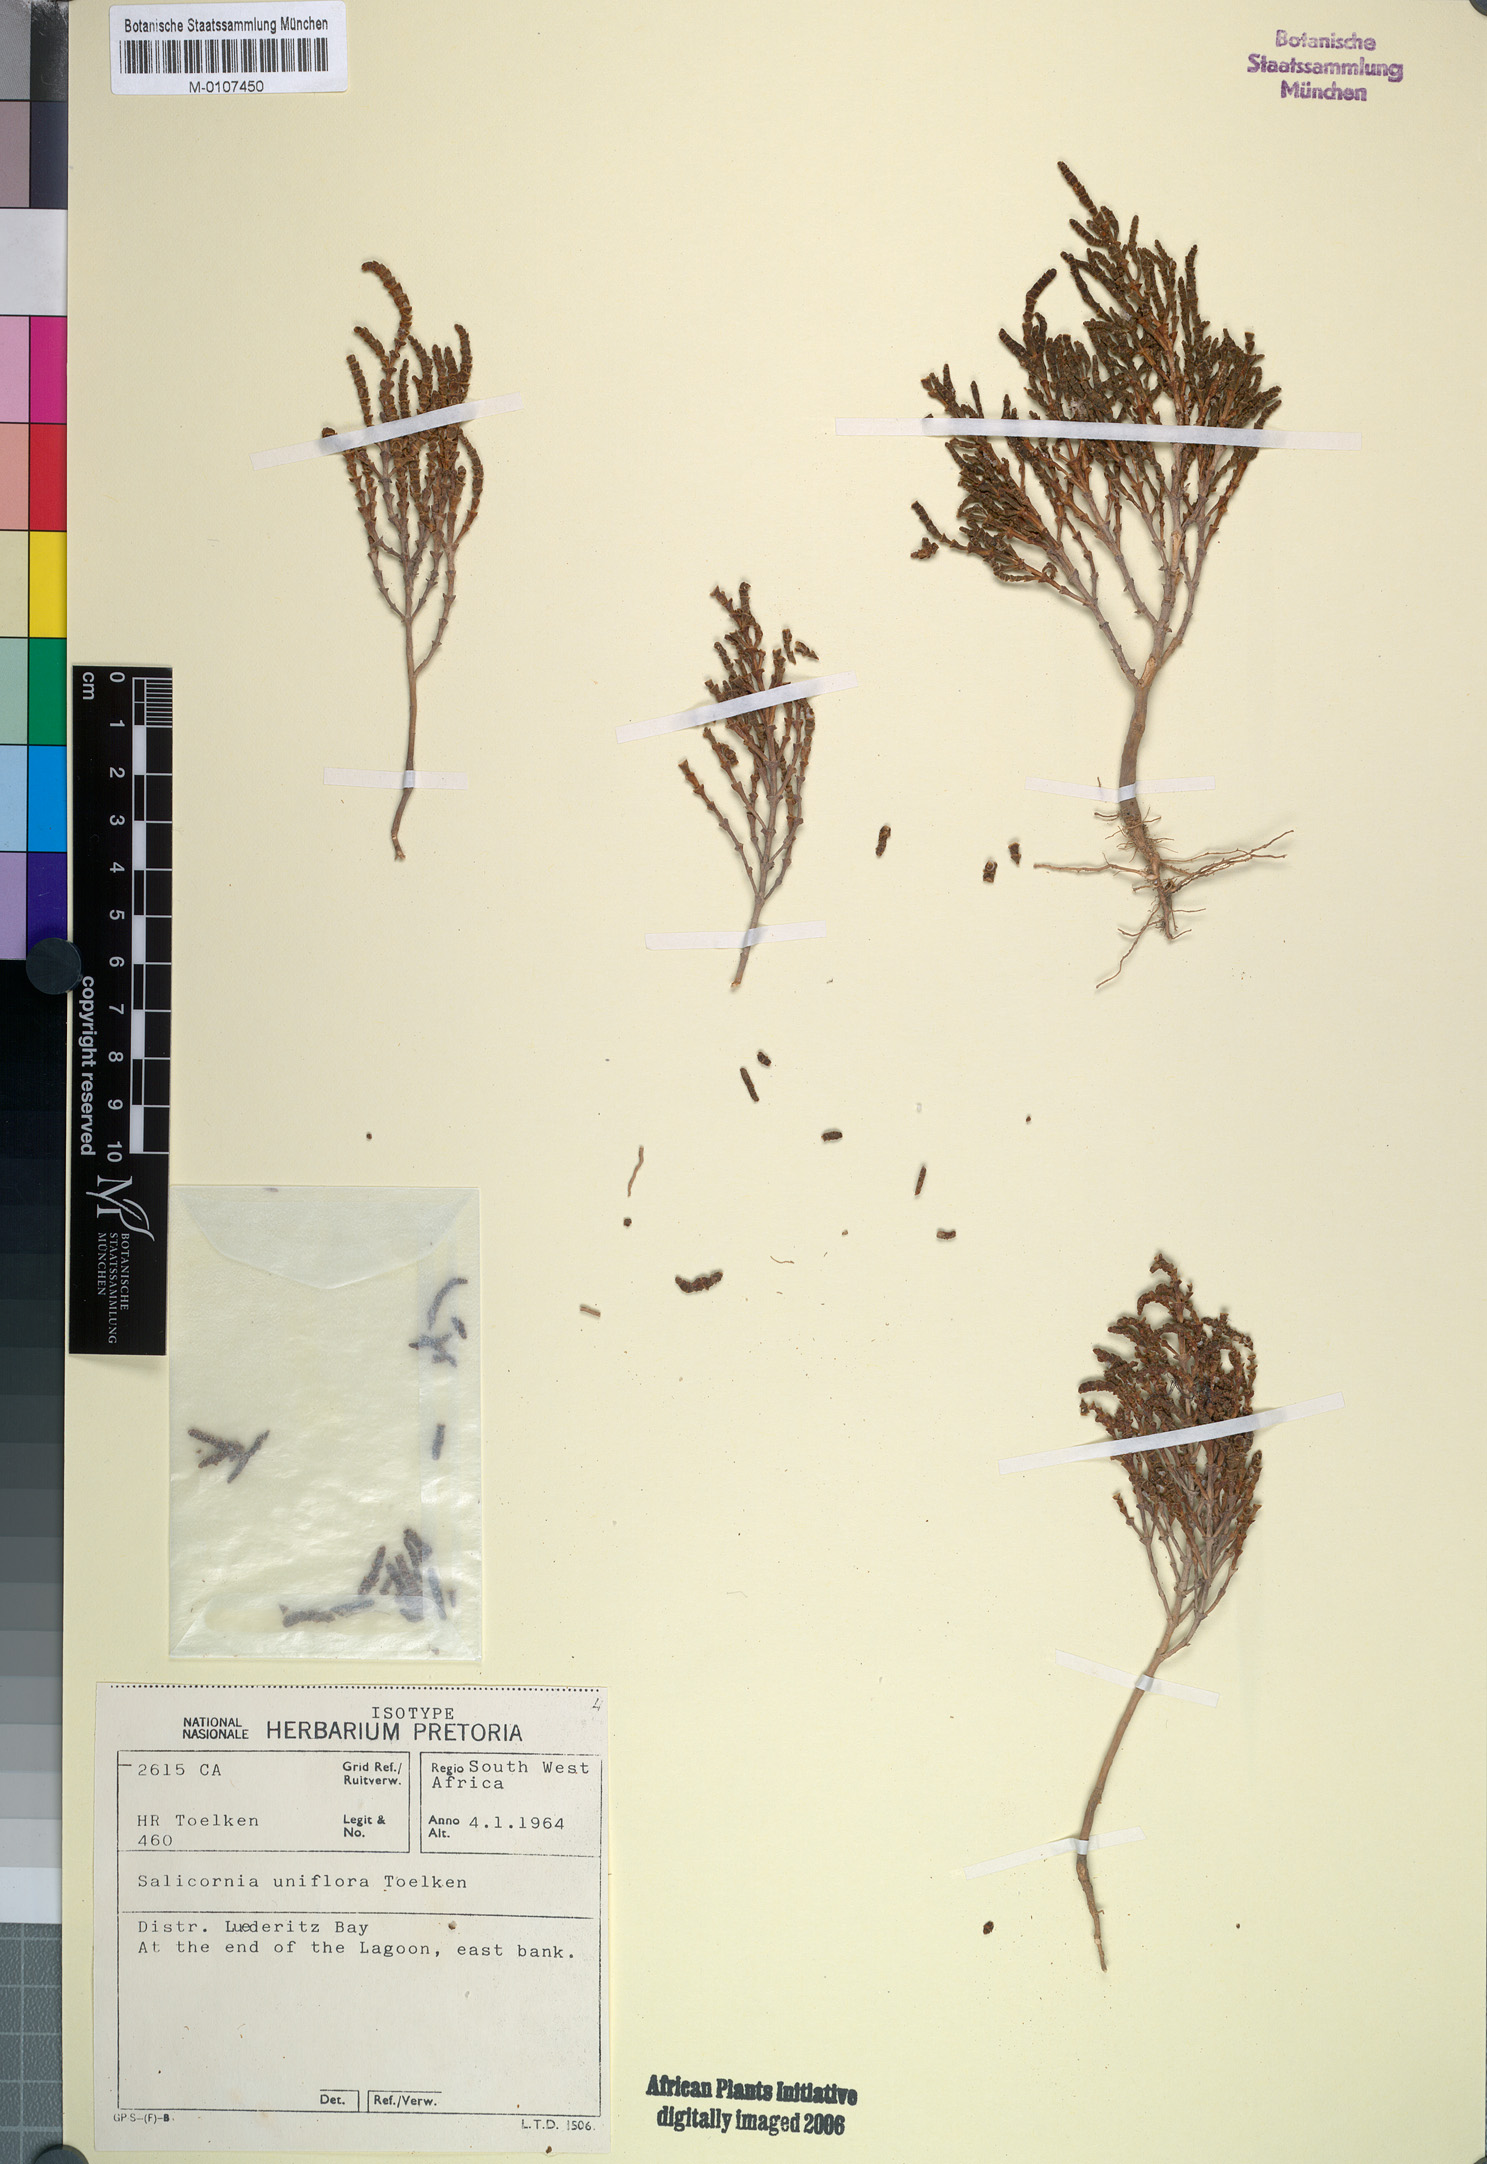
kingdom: Plantae
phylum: Tracheophyta
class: Magnoliopsida
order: Caryophyllales
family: Amaranthaceae
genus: Salicornia
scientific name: Salicornia uniflora
